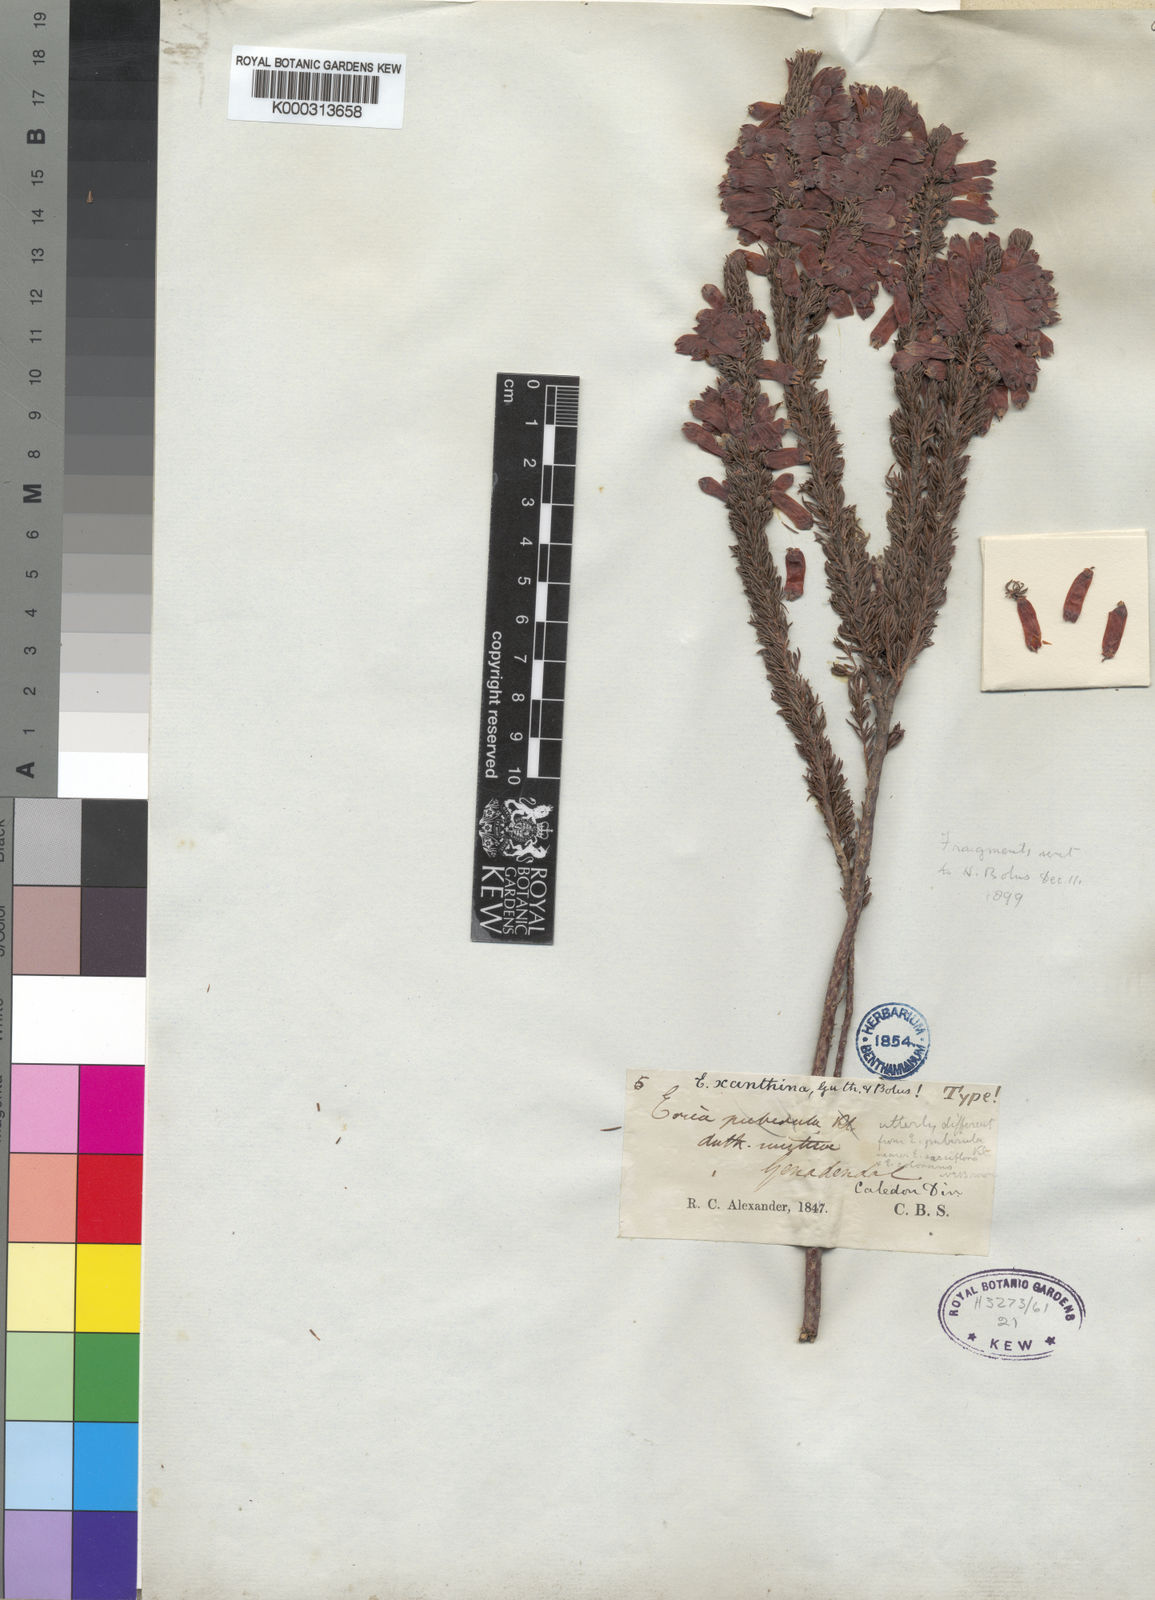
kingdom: Plantae
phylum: Tracheophyta
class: Magnoliopsida
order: Ericales
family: Ericaceae
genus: Erica
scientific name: Erica xanthina
